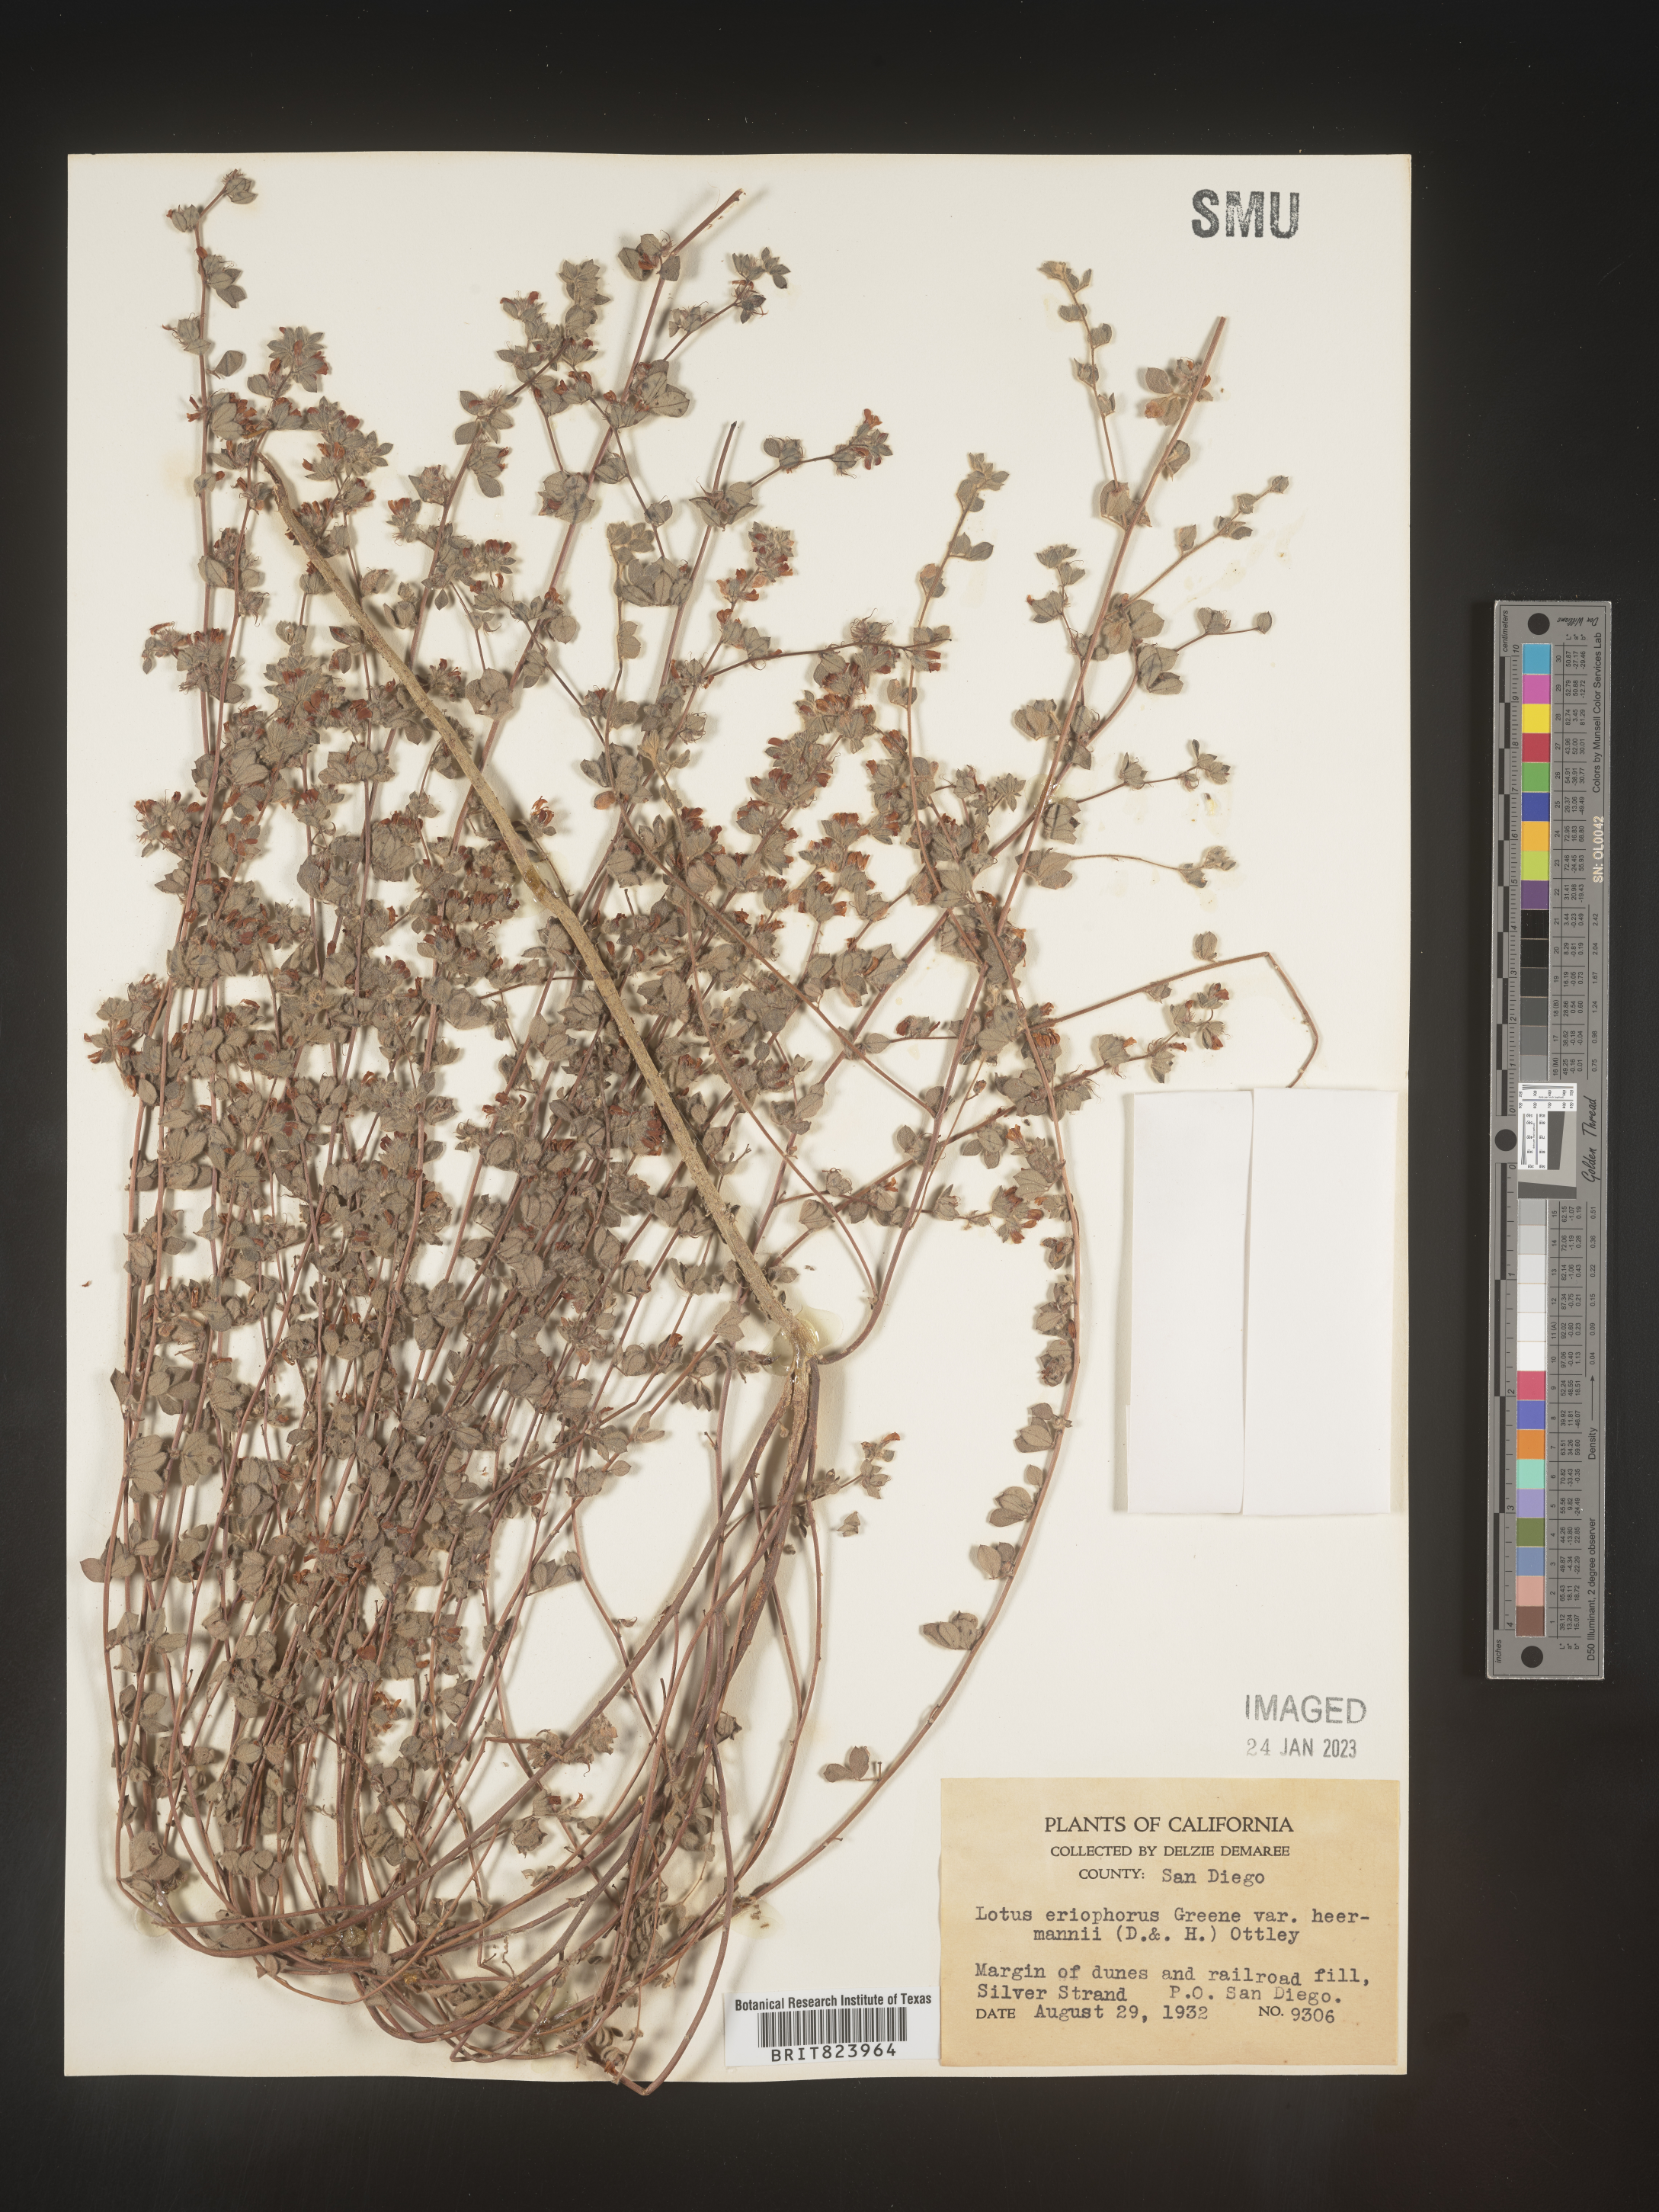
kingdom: Plantae
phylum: Tracheophyta
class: Magnoliopsida
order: Fabales
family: Fabaceae
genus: Lotus
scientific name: Lotus
